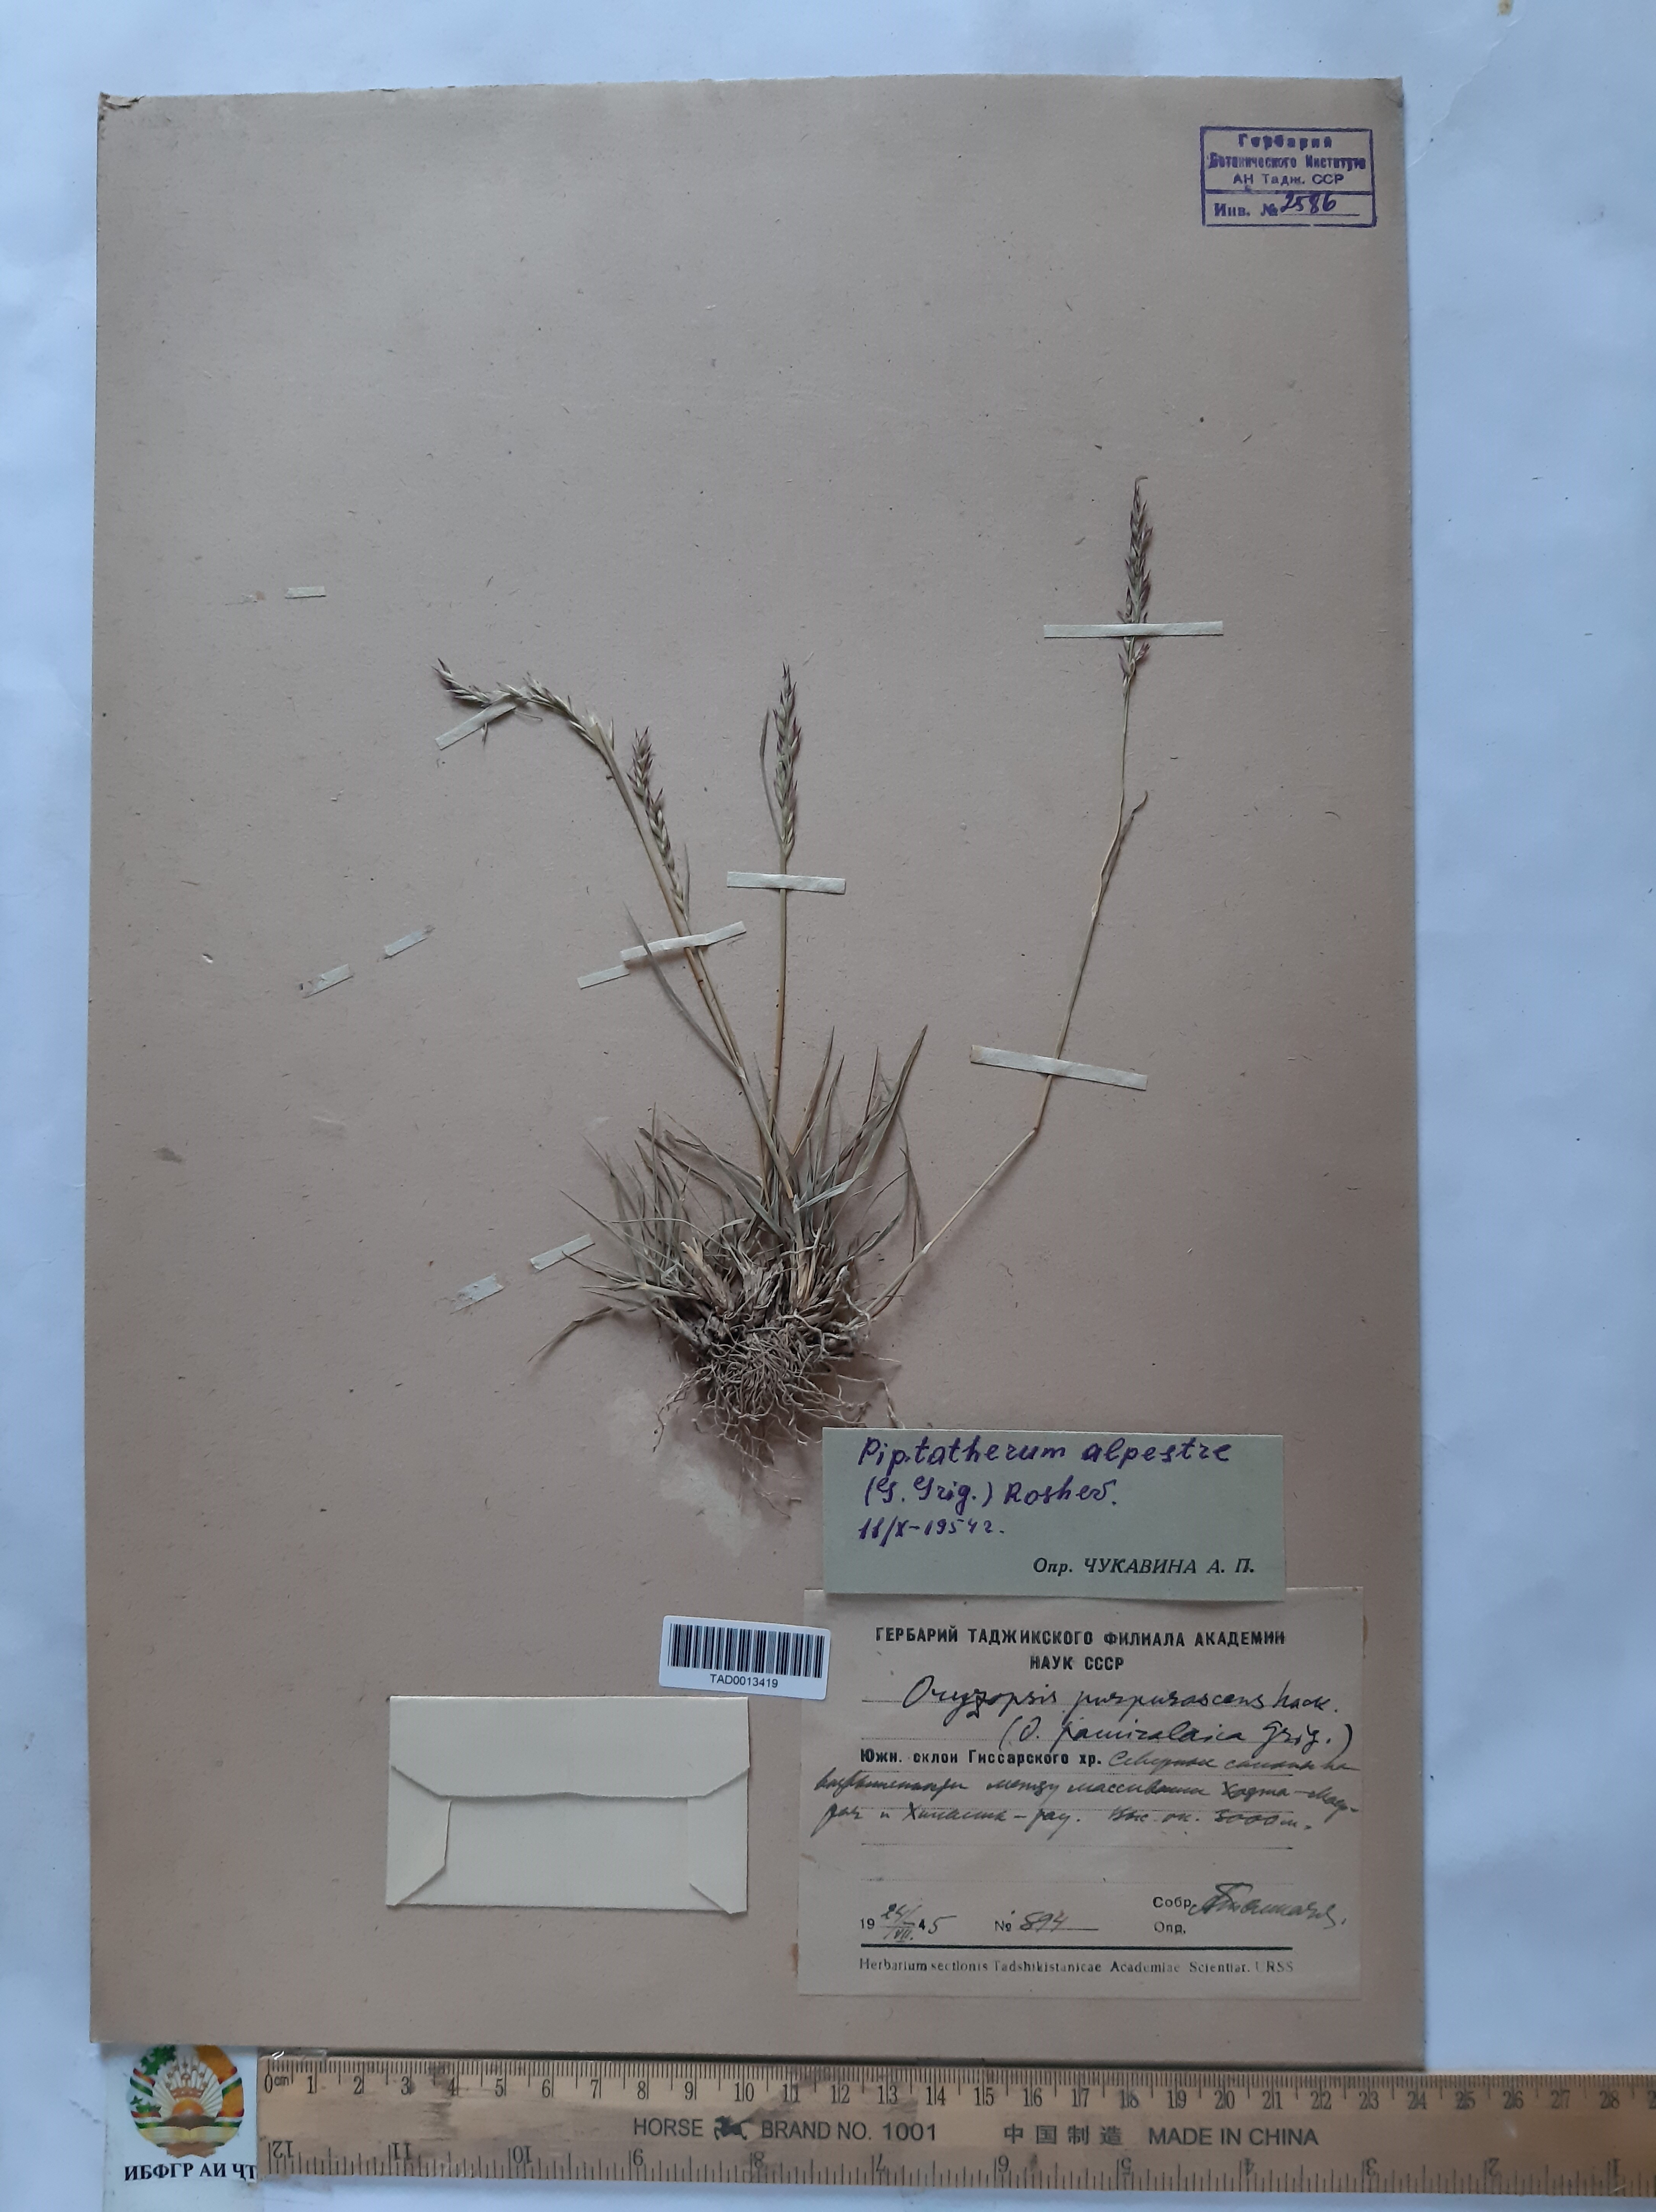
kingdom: Plantae
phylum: Tracheophyta
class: Liliopsida
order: Poales
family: Poaceae
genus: Piptatherum
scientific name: Piptatherum alpestre
